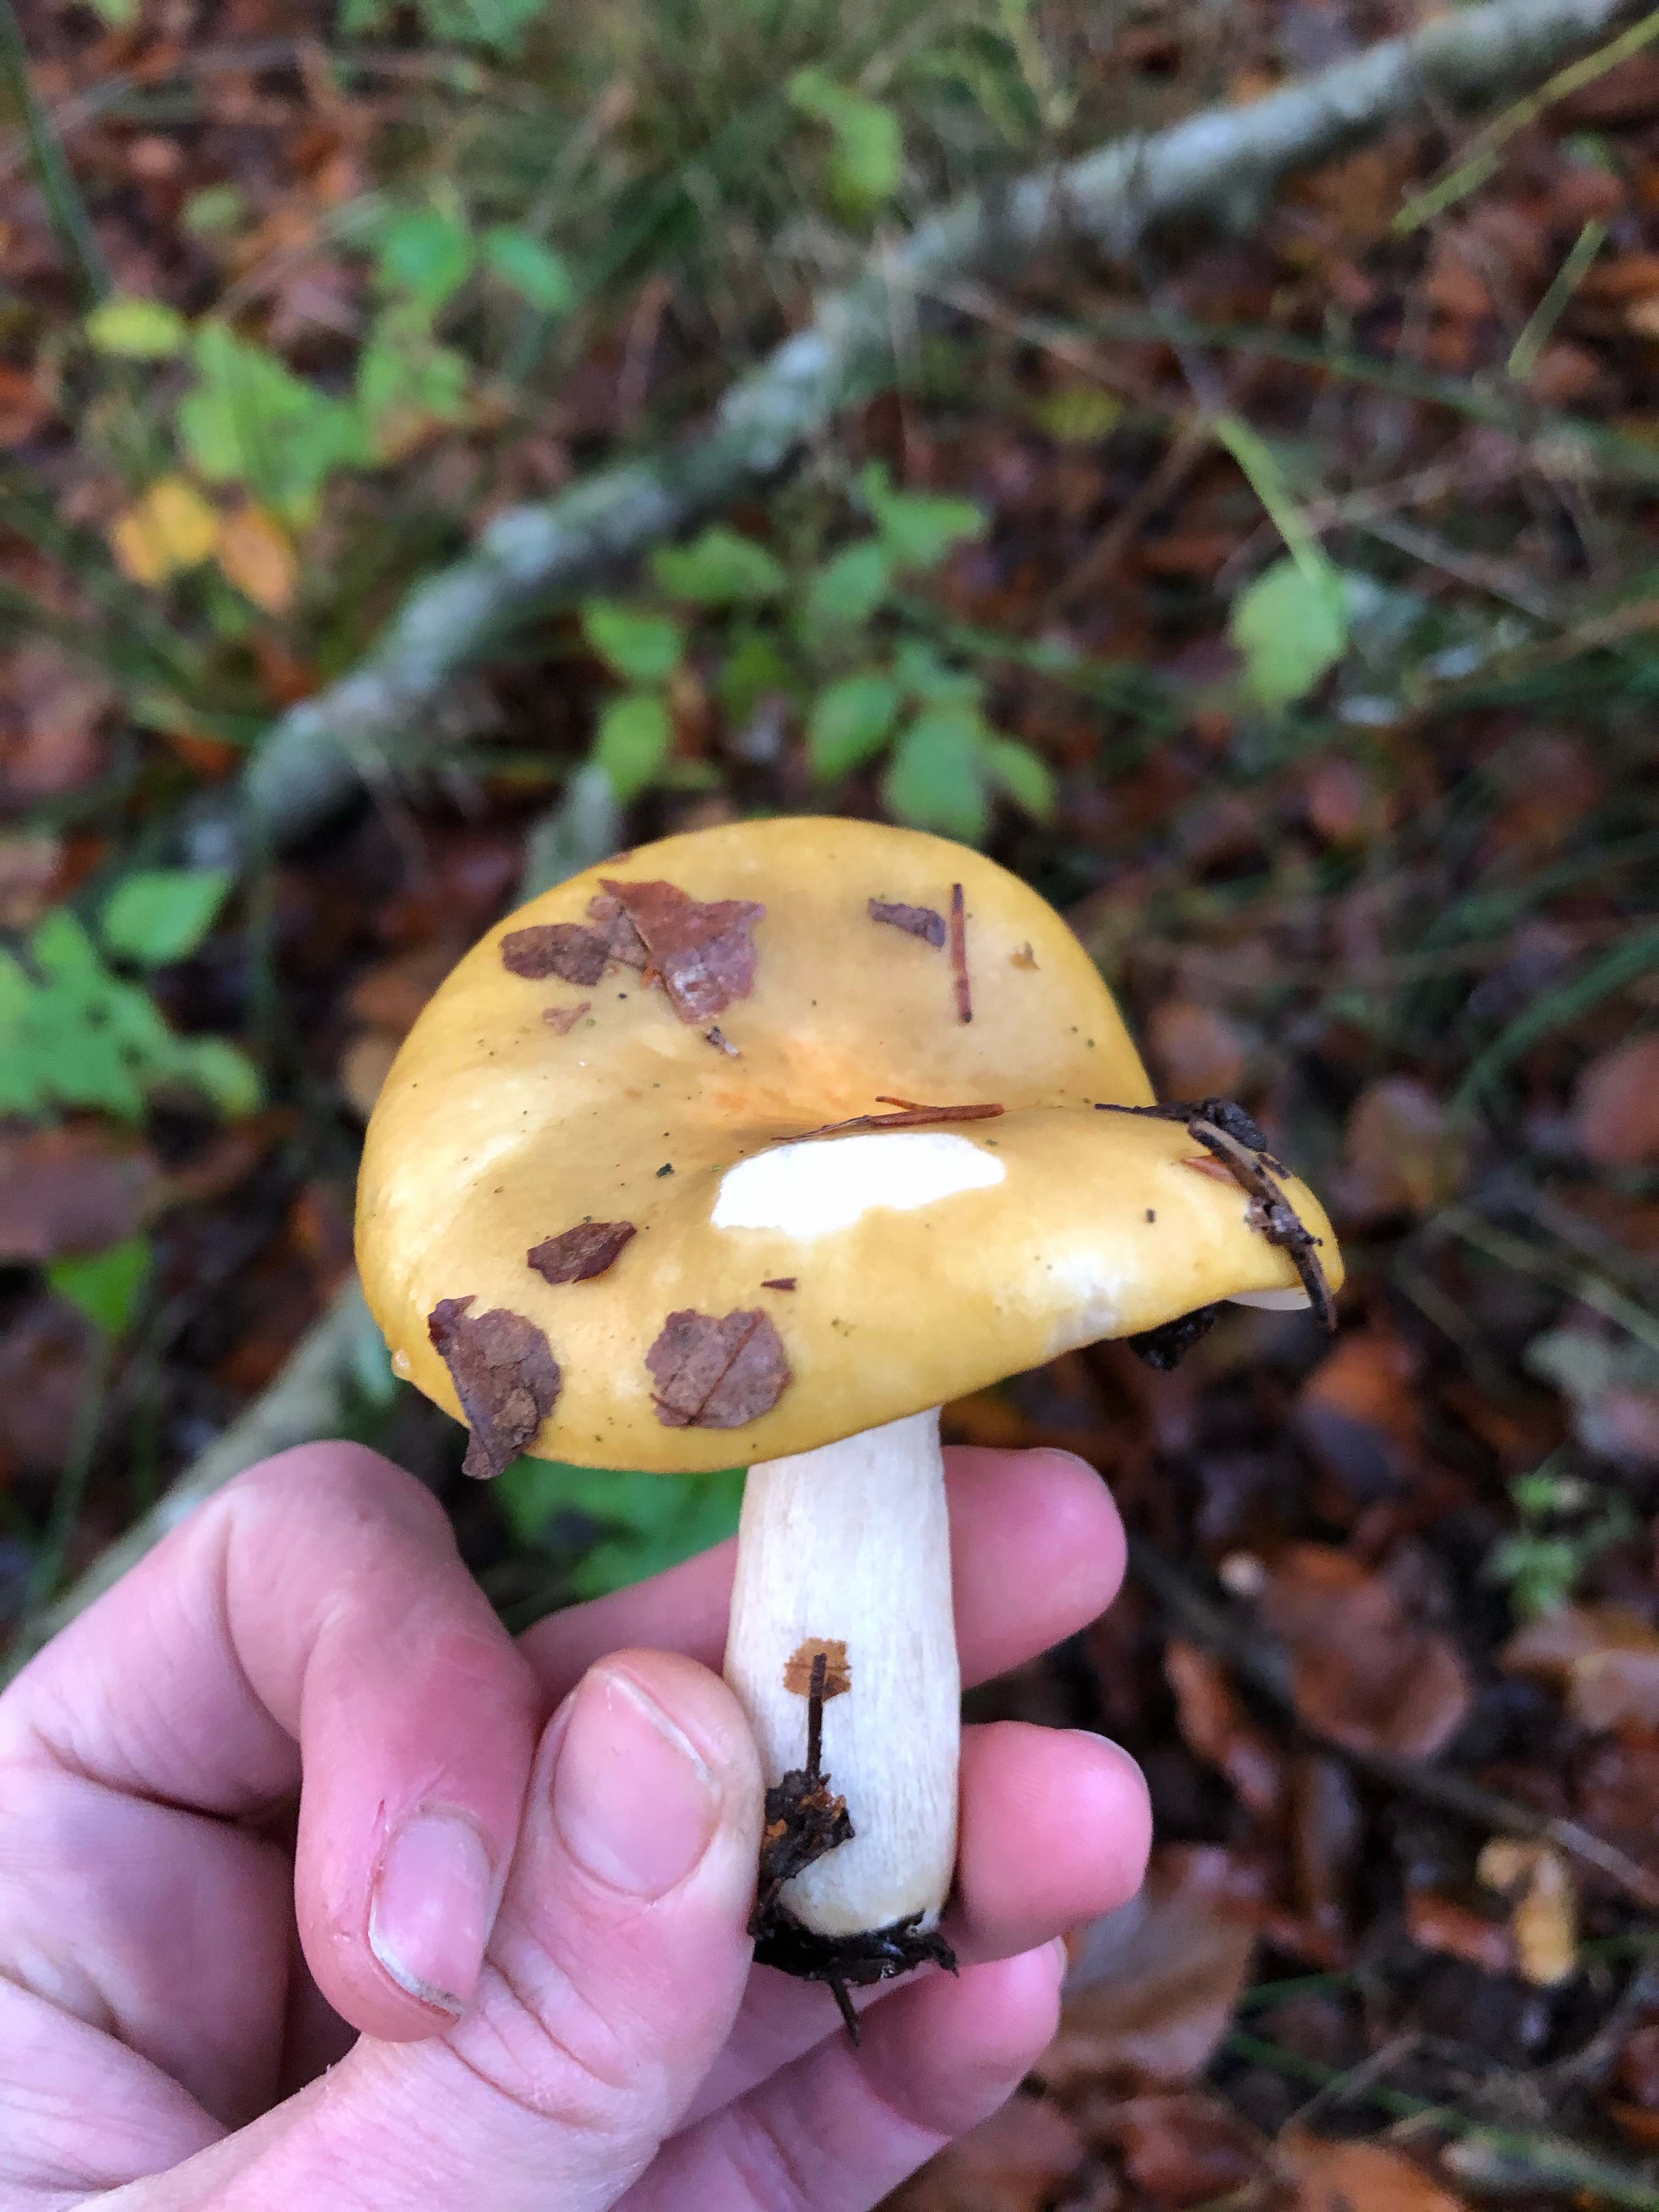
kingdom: Fungi
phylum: Basidiomycota
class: Agaricomycetes
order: Russulales
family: Russulaceae
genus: Russula
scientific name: Russula ochroleuca
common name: okkergul skørhat
